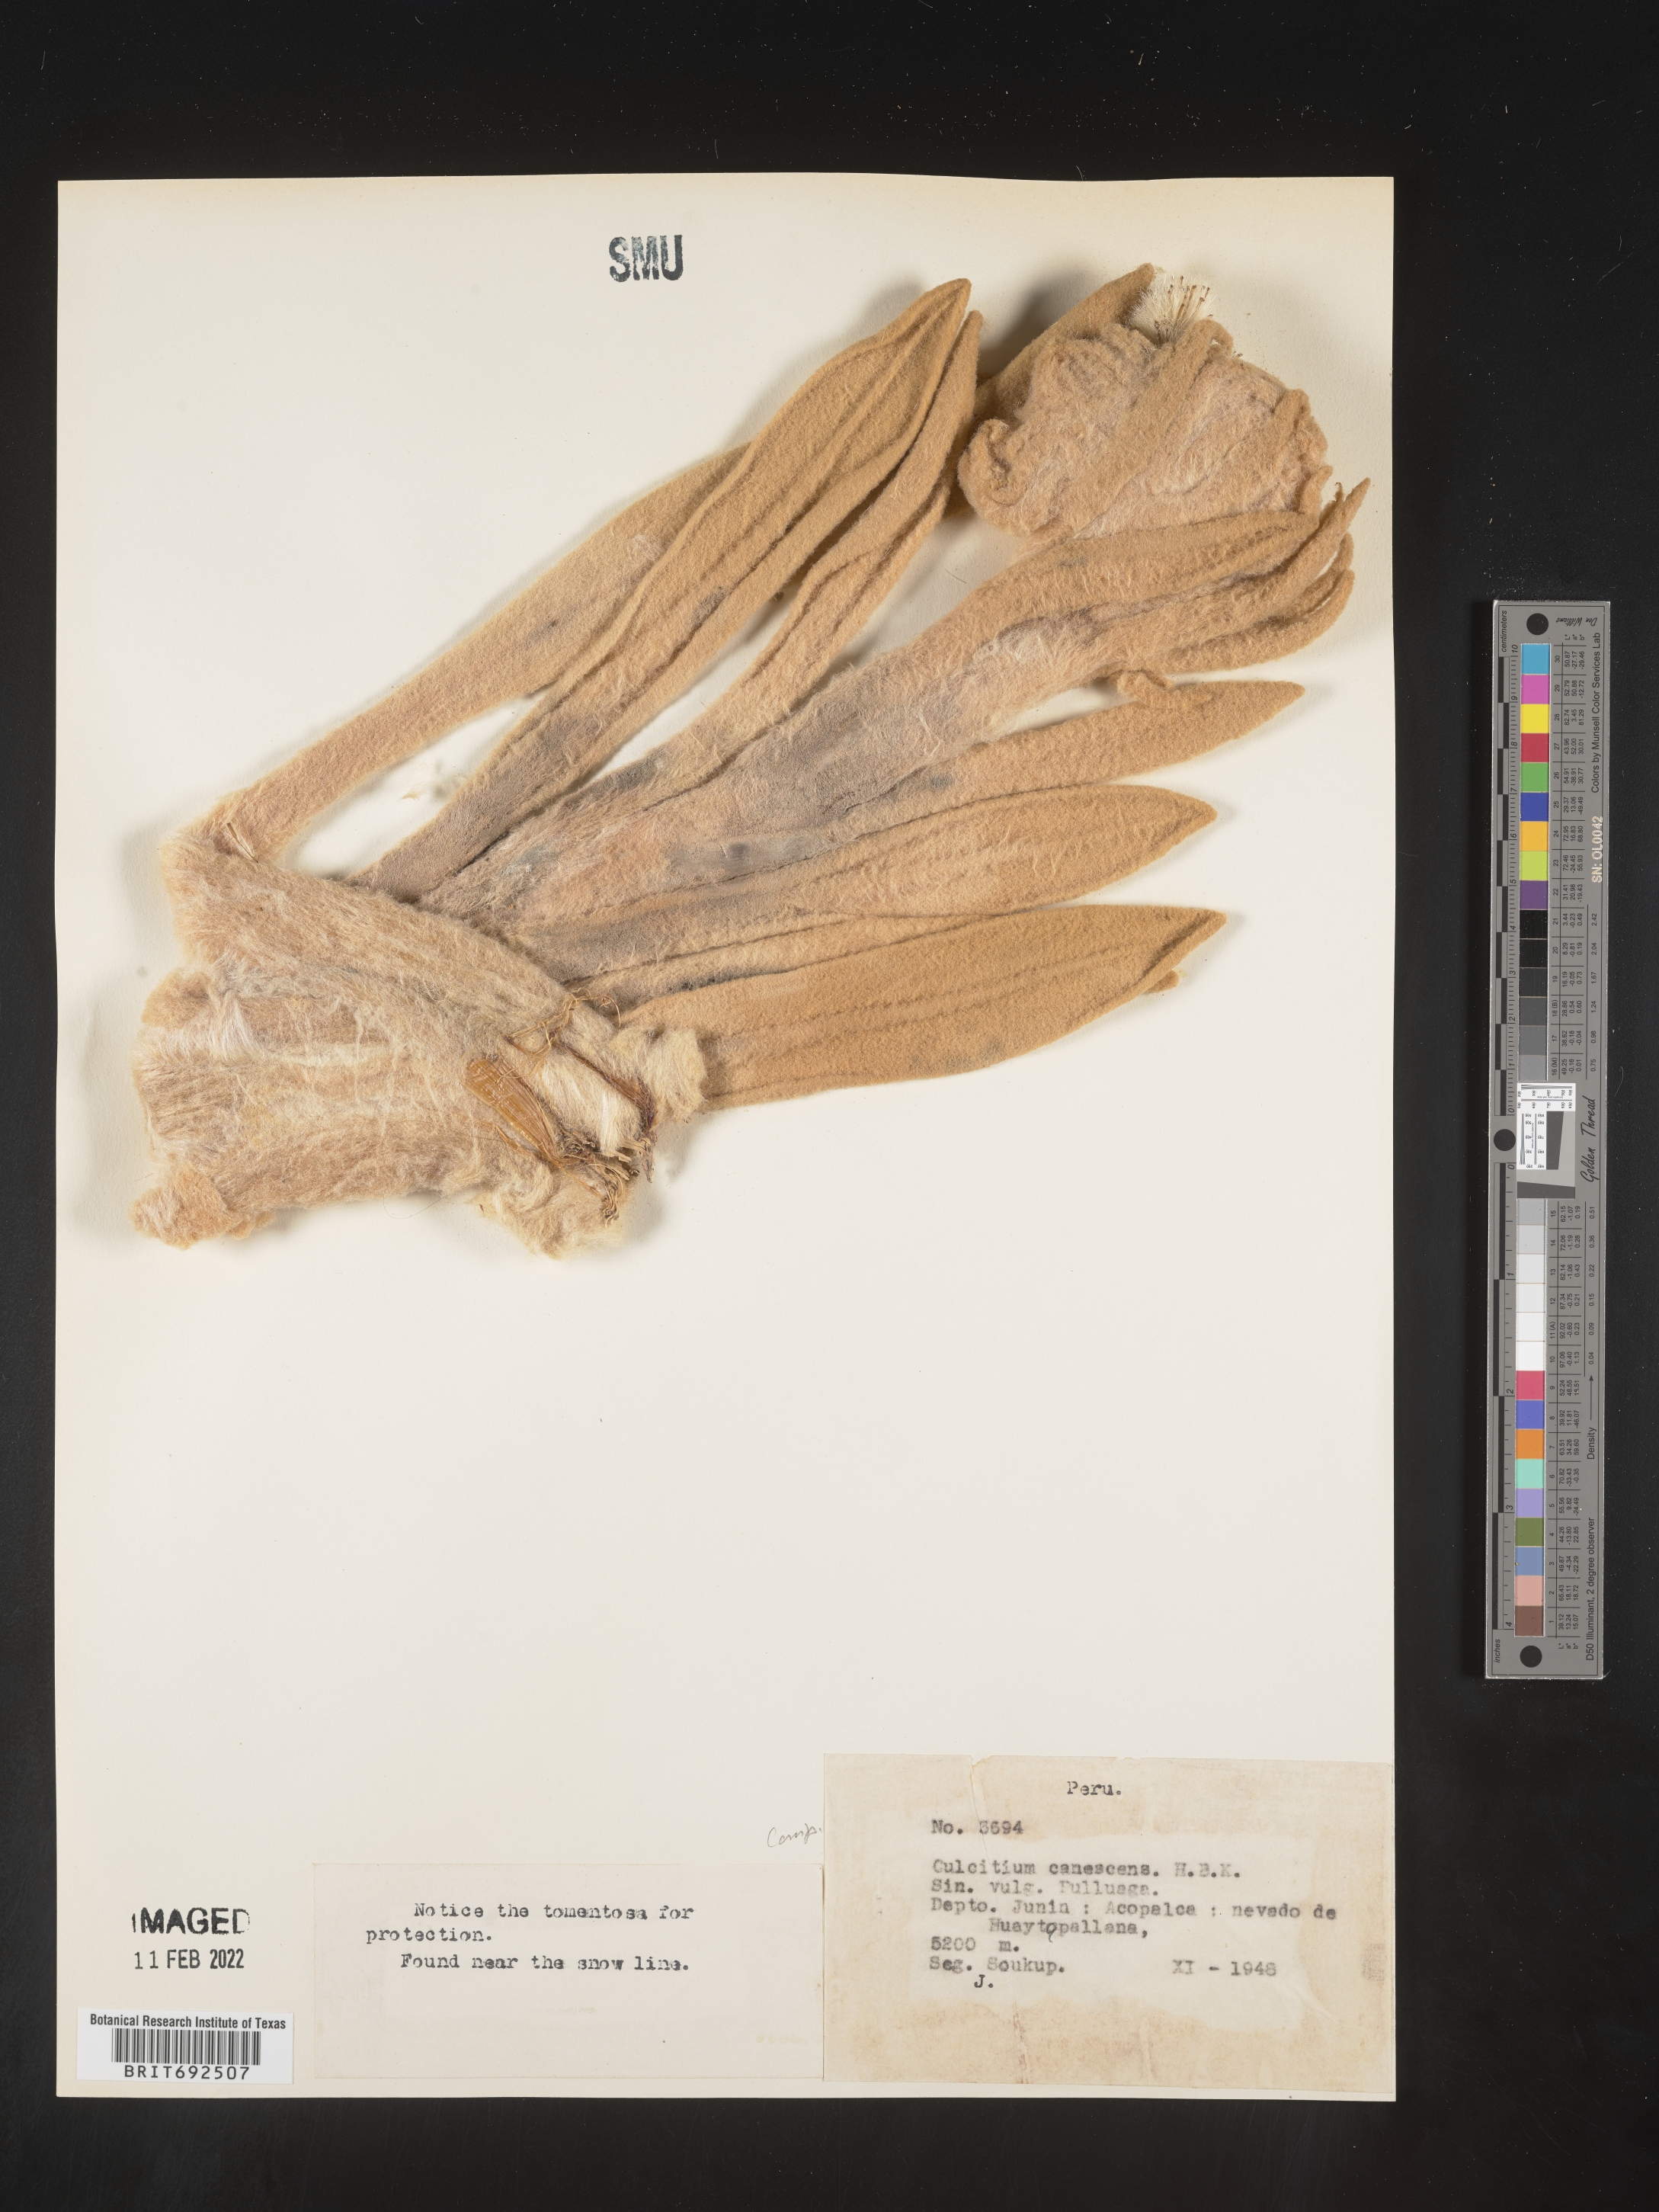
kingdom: Plantae
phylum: Tracheophyta
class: Magnoliopsida
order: Asterales
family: Asteraceae
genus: Culcitium
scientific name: Culcitium
